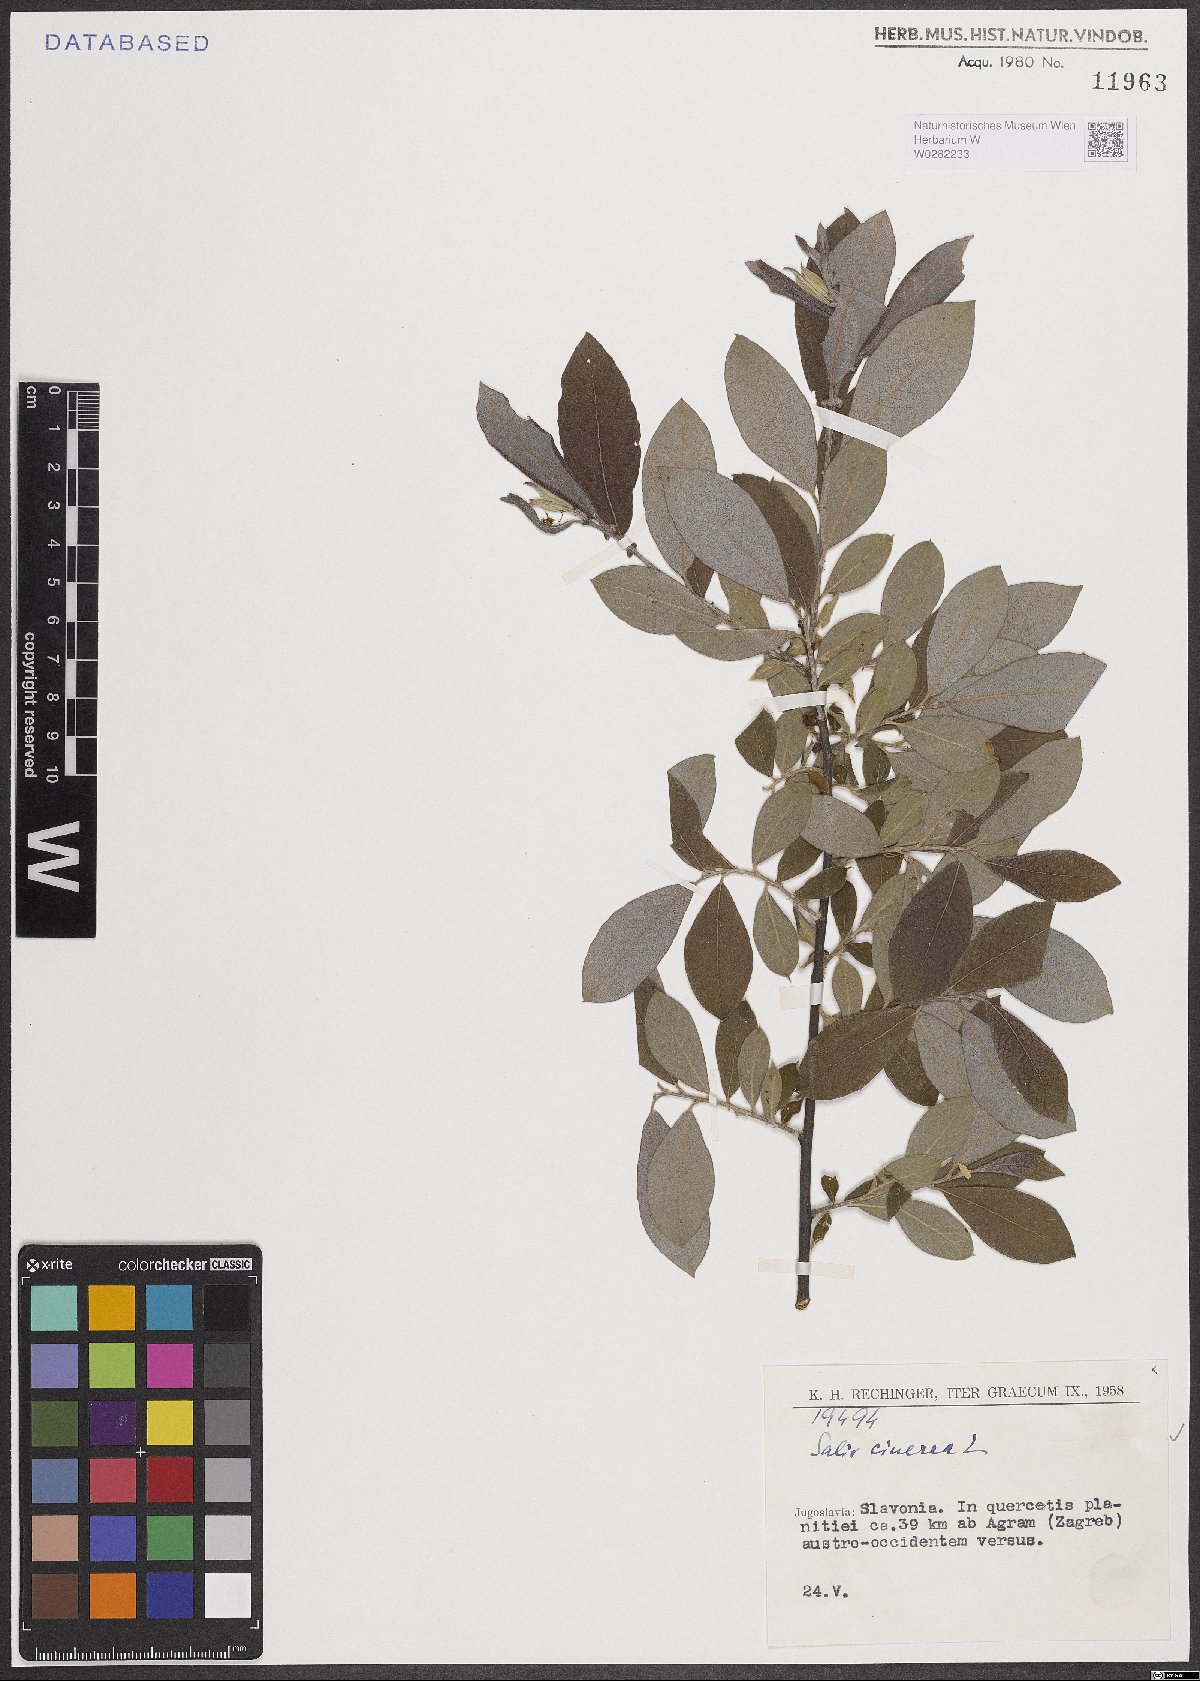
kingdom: Plantae
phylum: Tracheophyta
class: Magnoliopsida
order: Malpighiales
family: Salicaceae
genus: Salix
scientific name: Salix cinerea
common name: Common sallow
